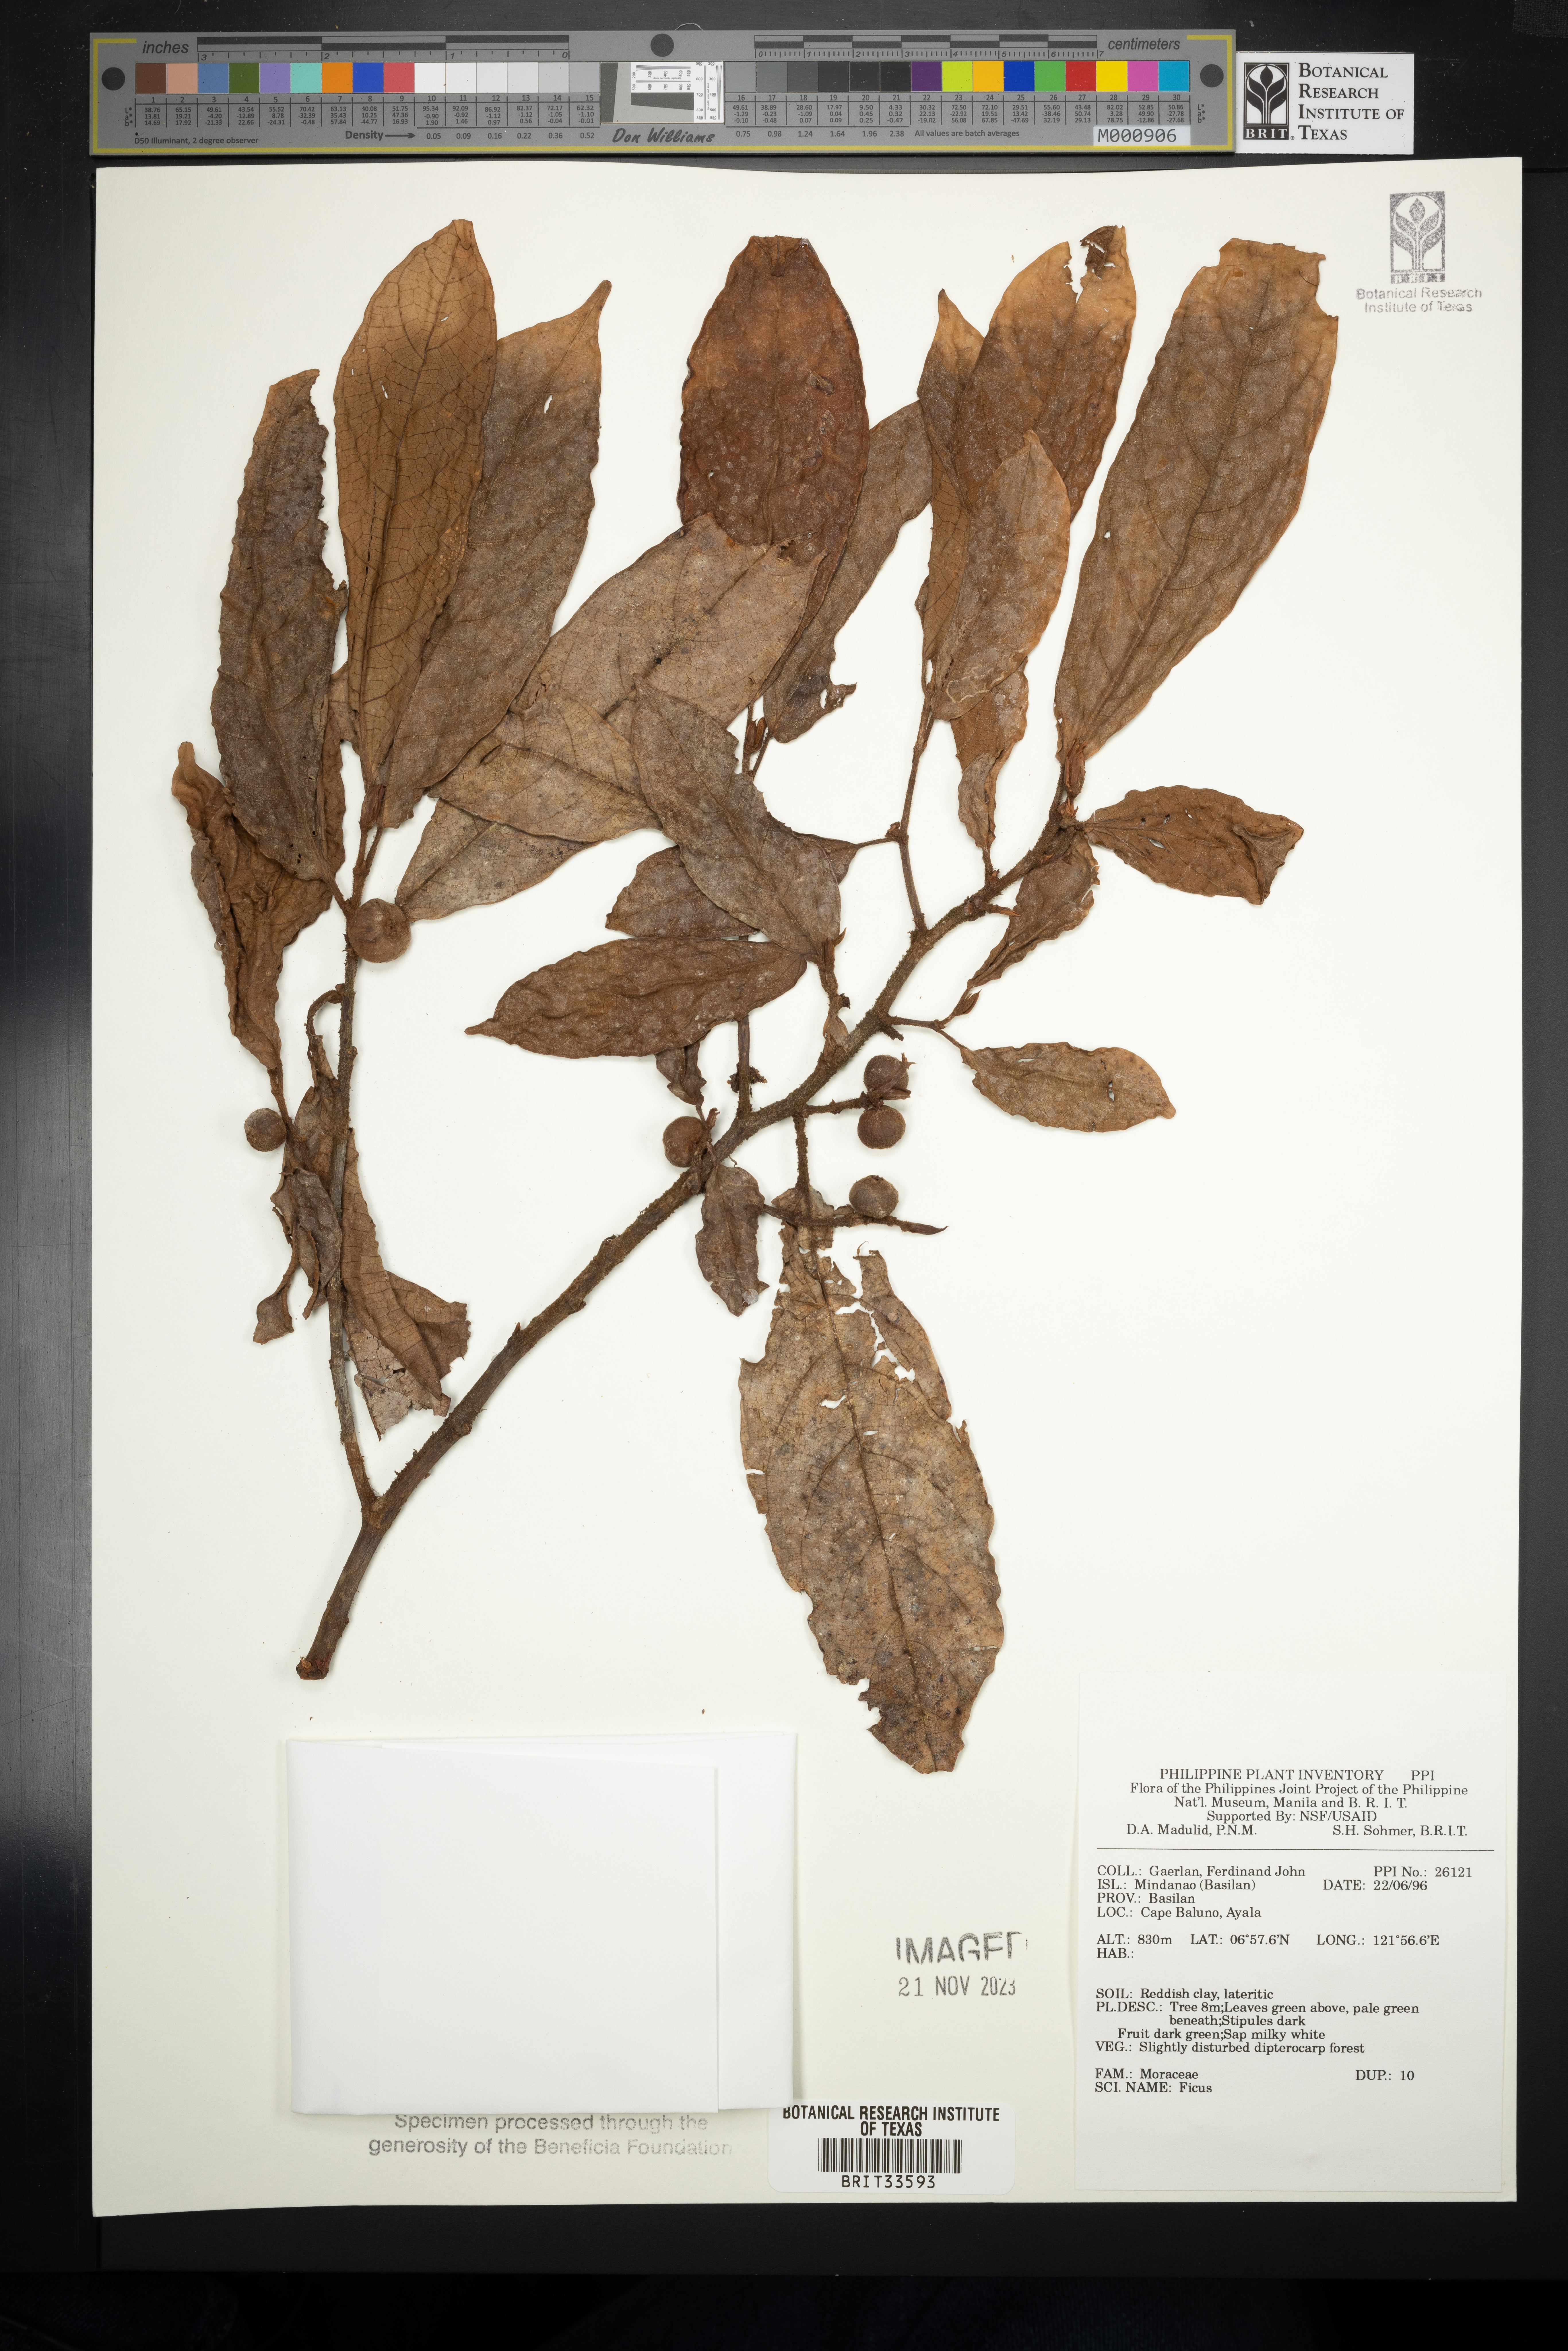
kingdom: Plantae
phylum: Tracheophyta
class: Magnoliopsida
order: Rosales
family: Moraceae
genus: Ficus
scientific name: Ficus
